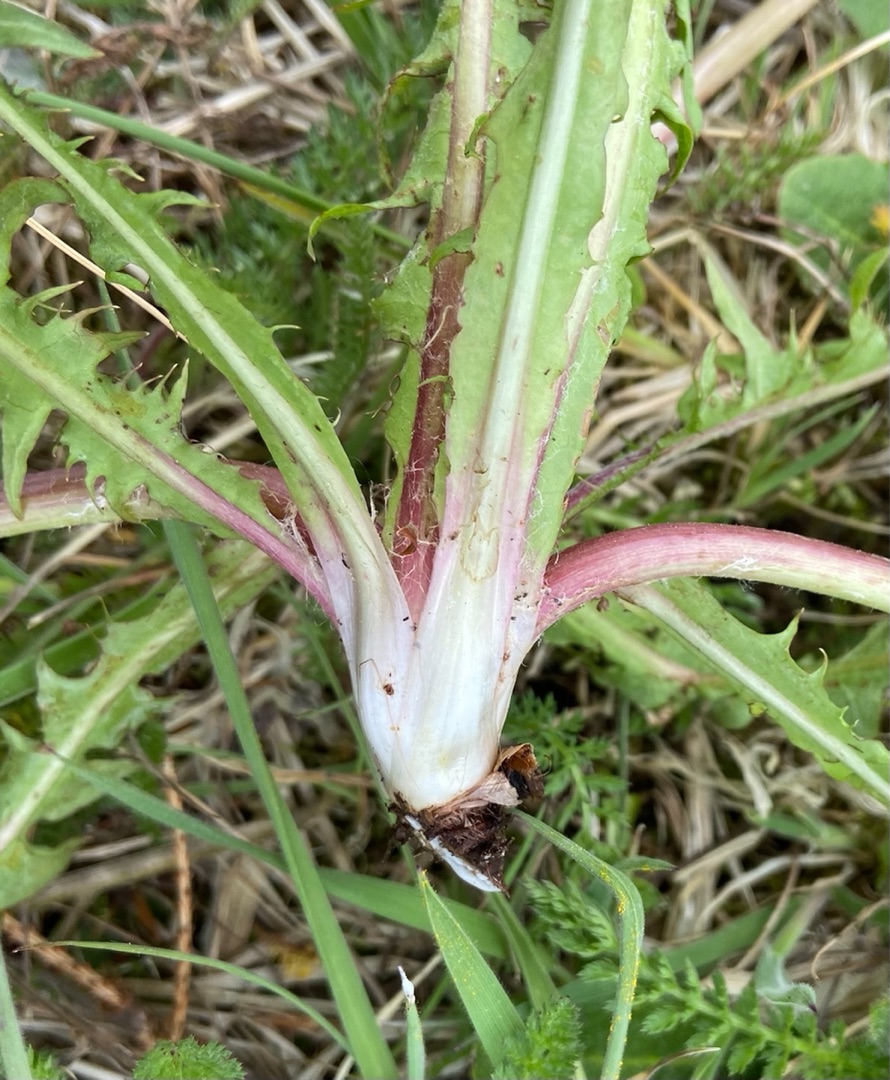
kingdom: Plantae
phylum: Tracheophyta
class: Magnoliopsida
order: Asterales
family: Asteraceae
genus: Taraxacum
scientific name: Taraxacum
